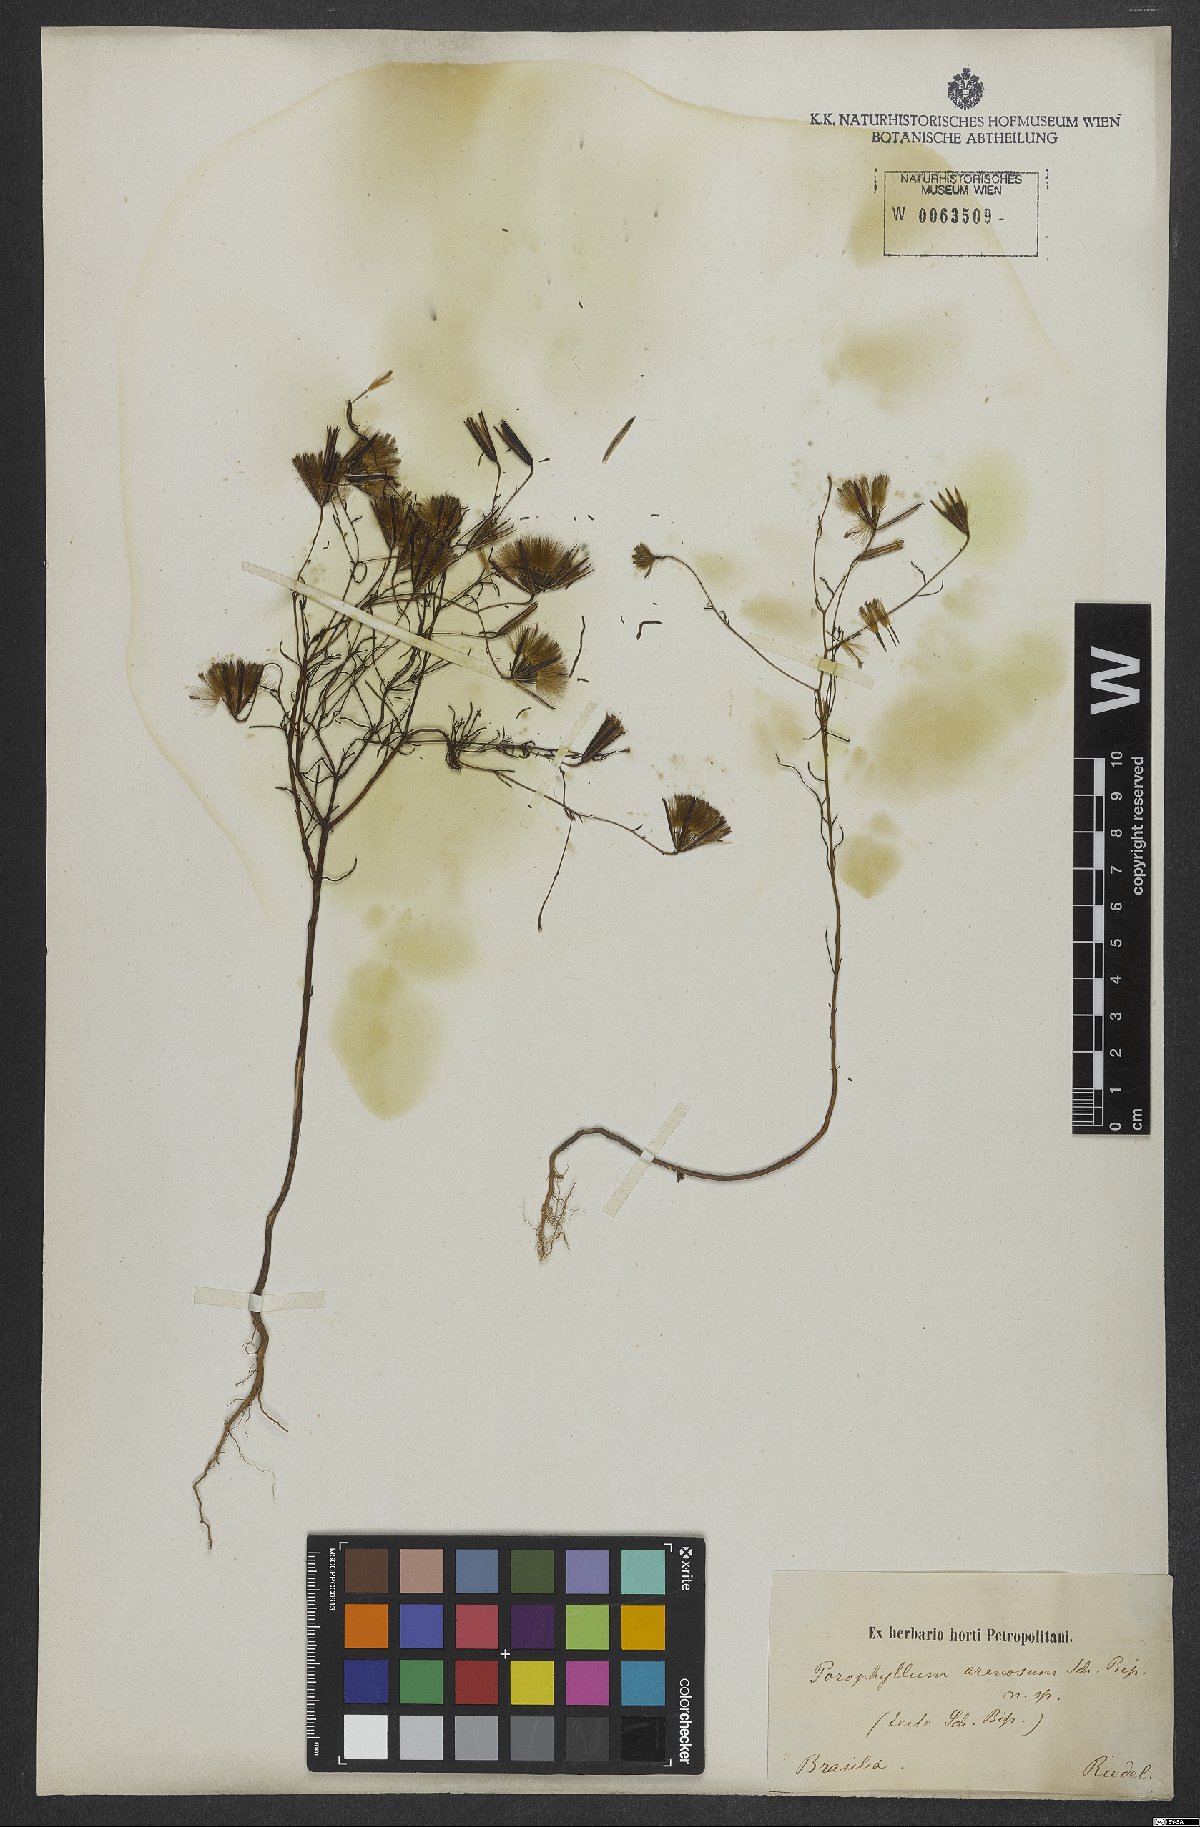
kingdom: Plantae
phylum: Tracheophyta
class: Magnoliopsida
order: Asterales
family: Asteraceae
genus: Porophyllum
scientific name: Porophyllum angustissimum
